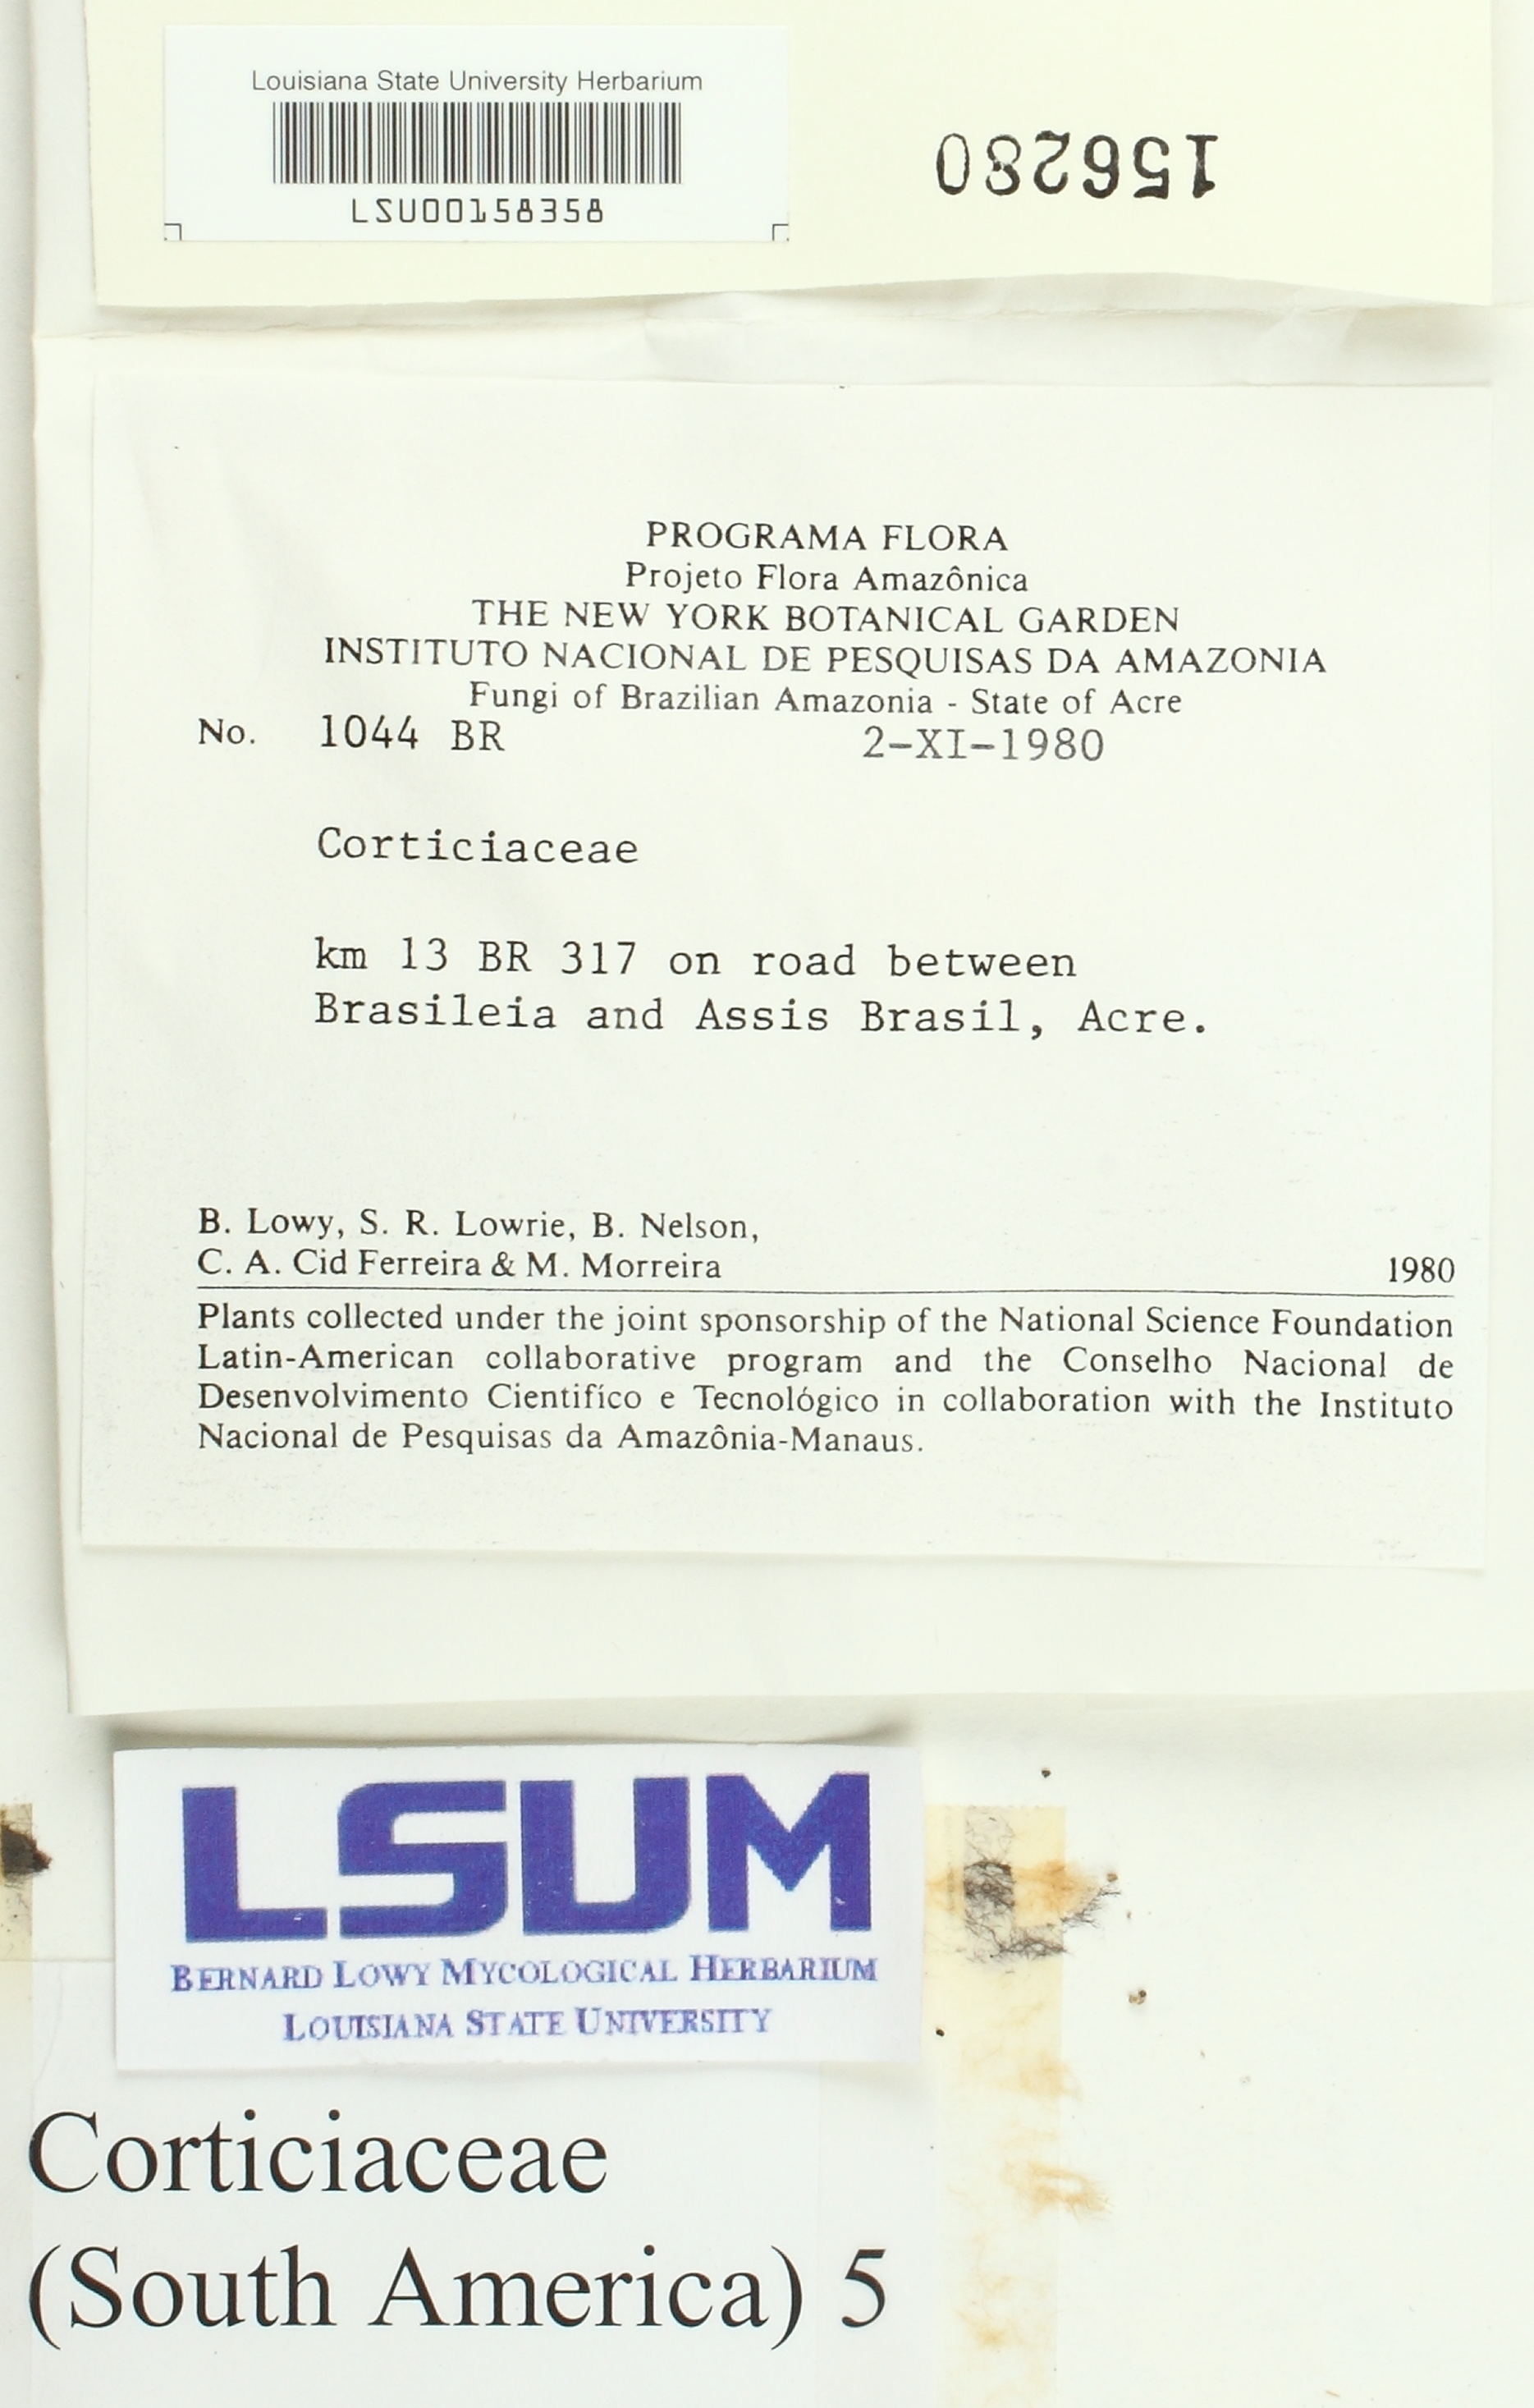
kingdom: Fungi
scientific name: Fungi
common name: Fungi
